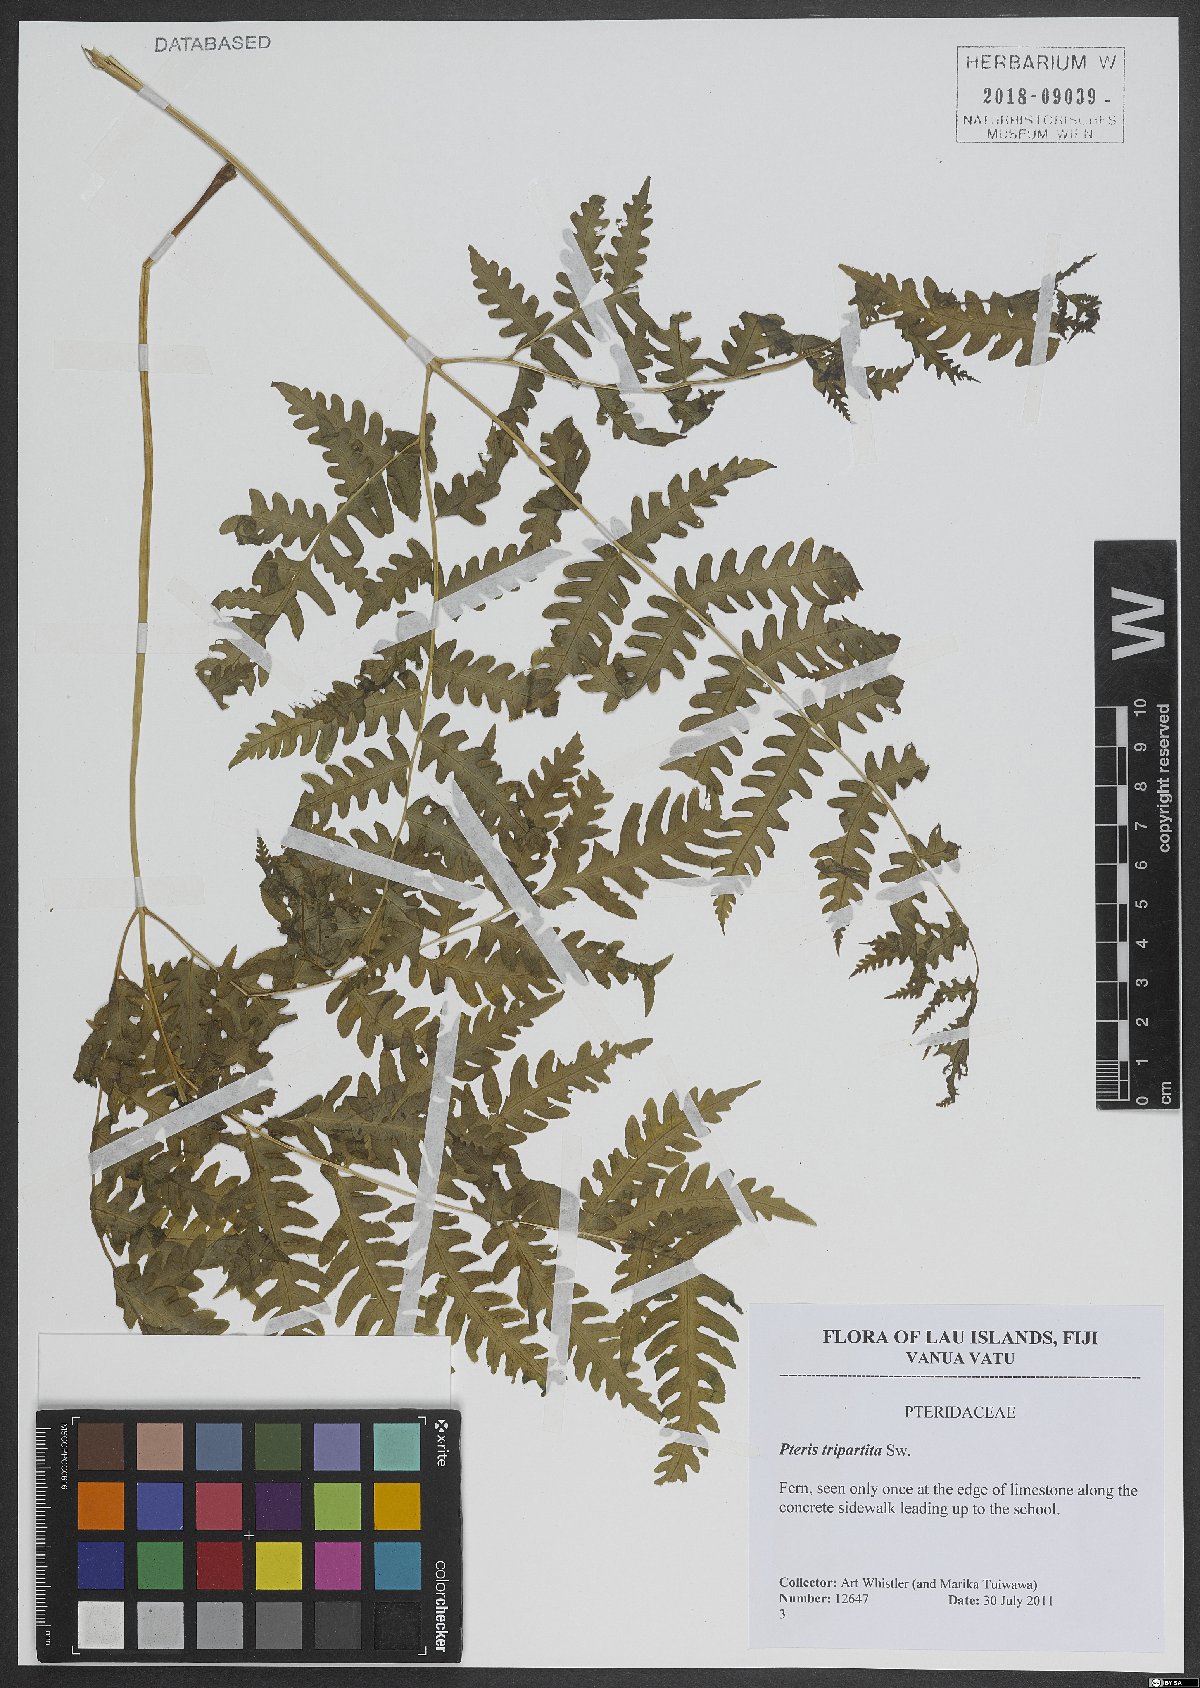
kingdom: Plantae
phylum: Tracheophyta
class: Polypodiopsida
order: Polypodiales
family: Pteridaceae
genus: Pteris
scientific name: Pteris tripartita
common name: Giant brake
